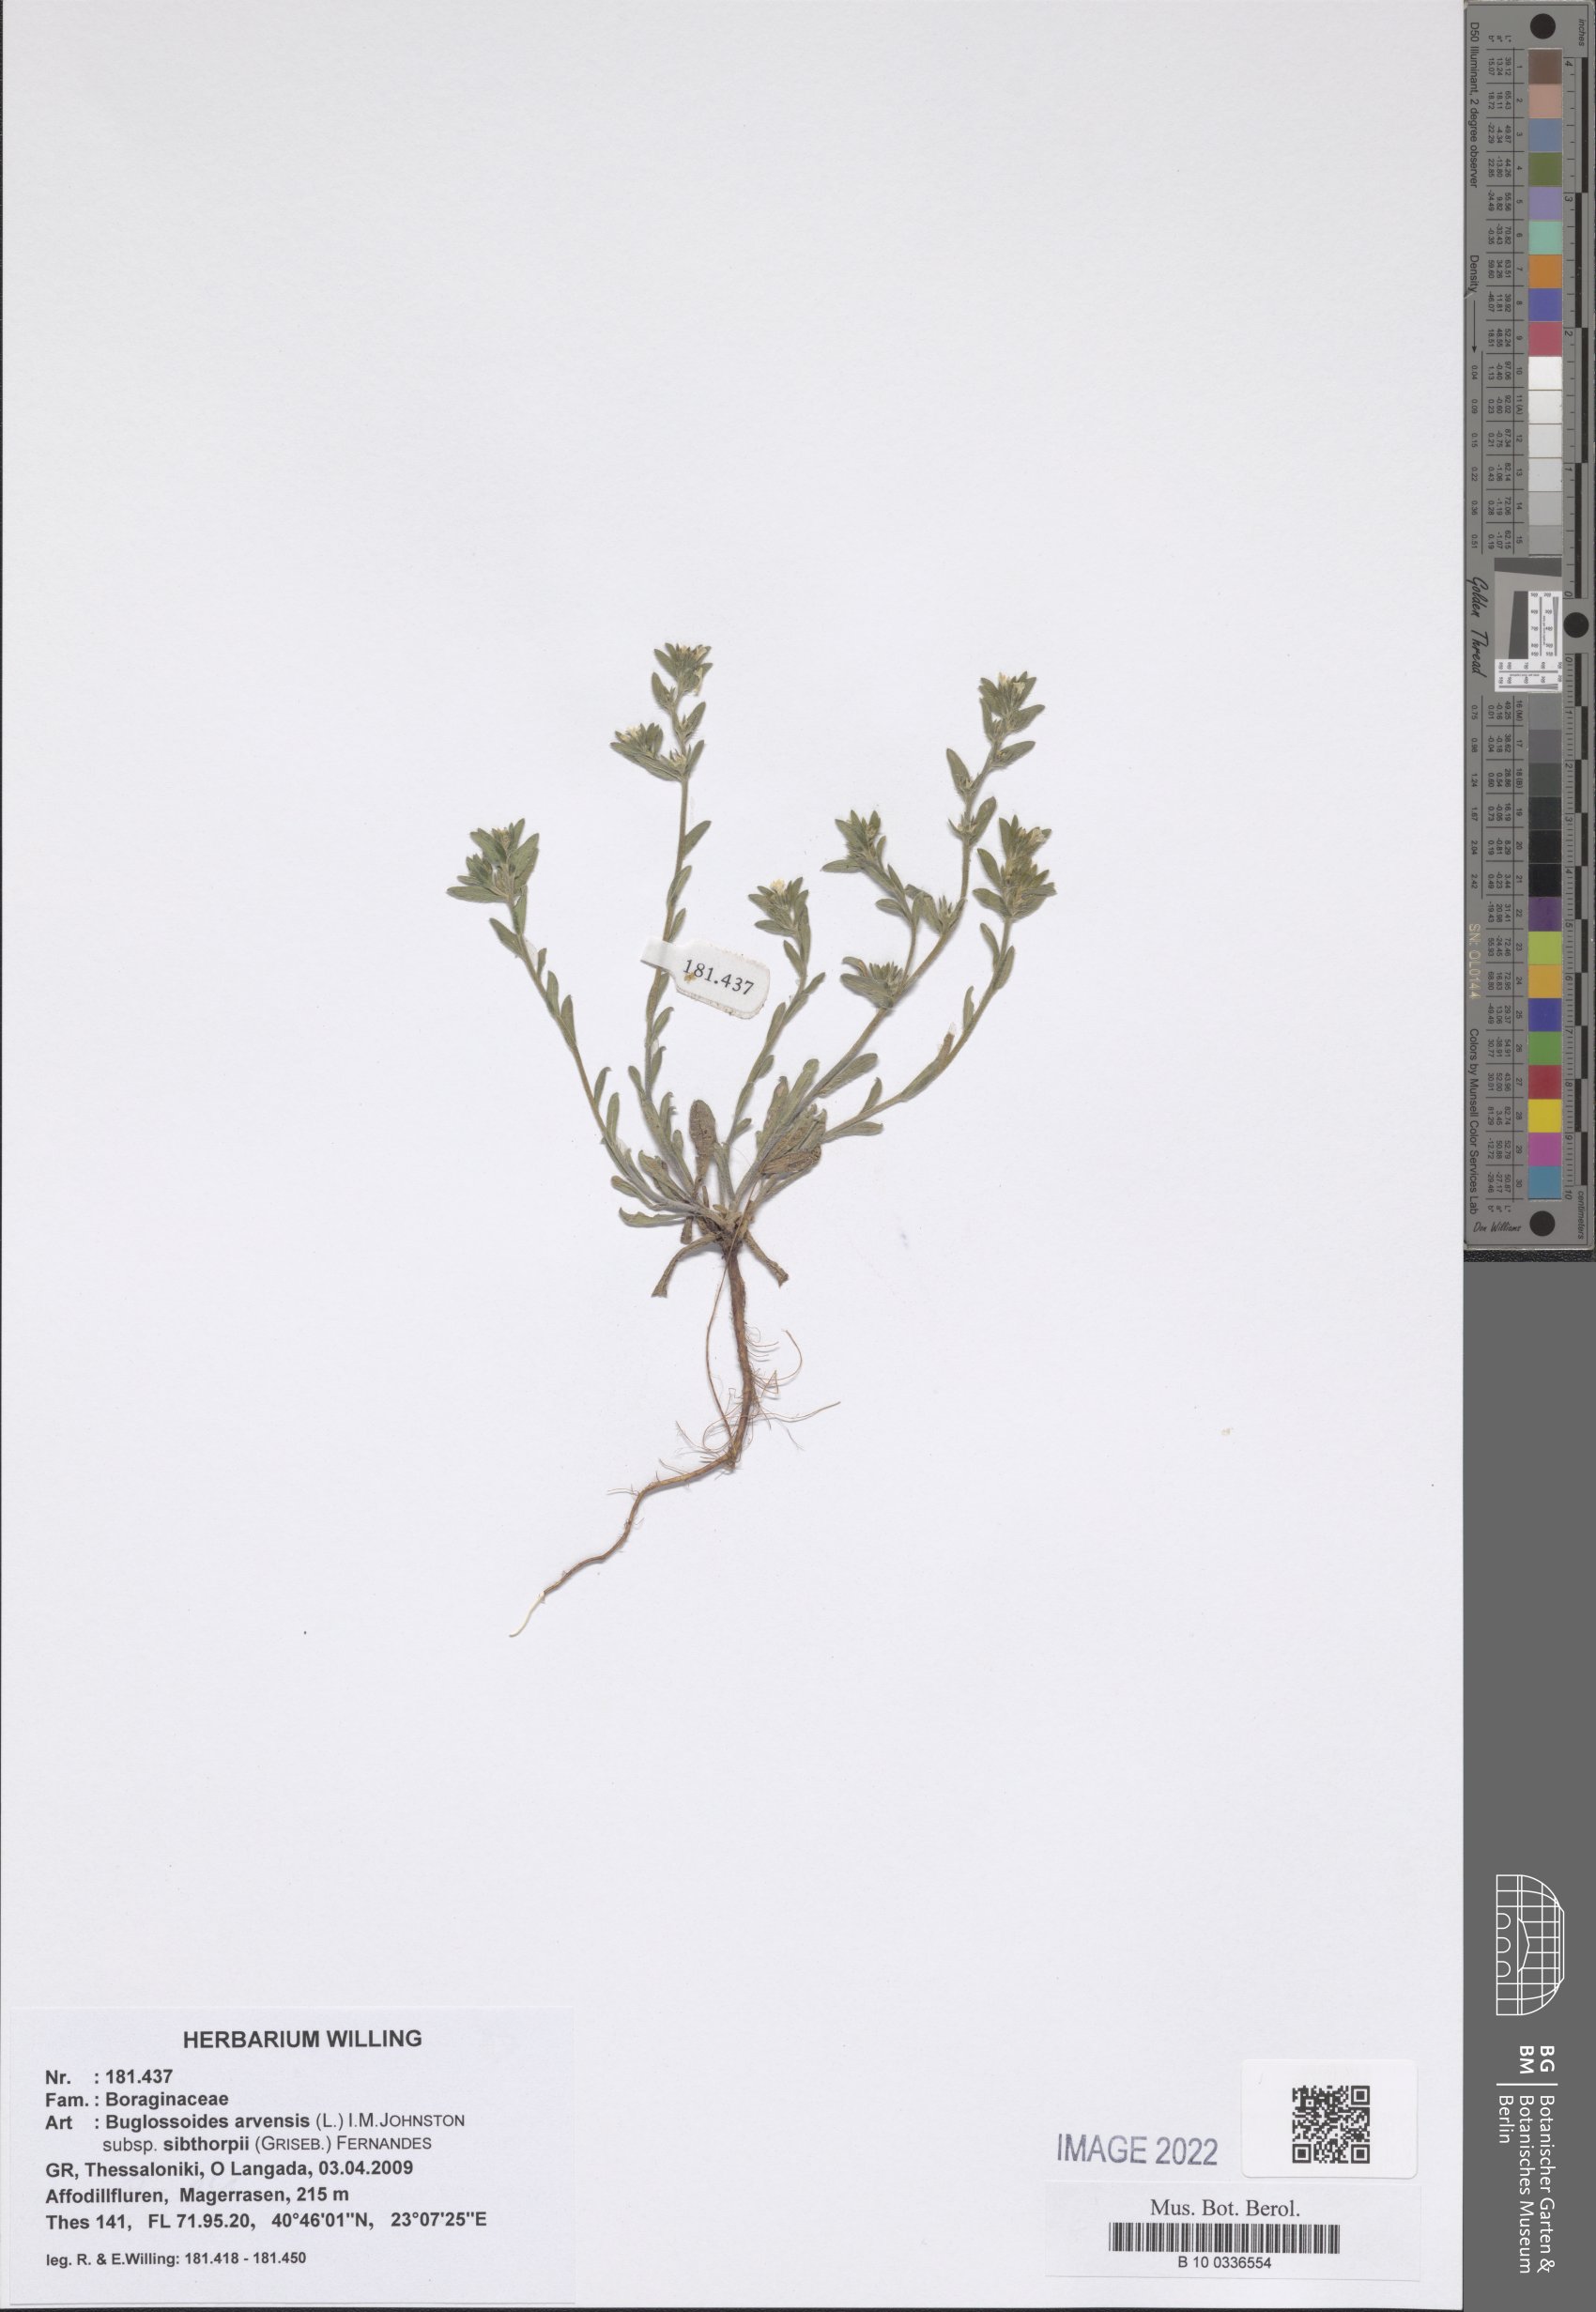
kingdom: Plantae
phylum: Tracheophyta
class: Magnoliopsida
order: Boraginales
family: Boraginaceae
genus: Buglossoides
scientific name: Buglossoides arvensis
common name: Corn gromwell
